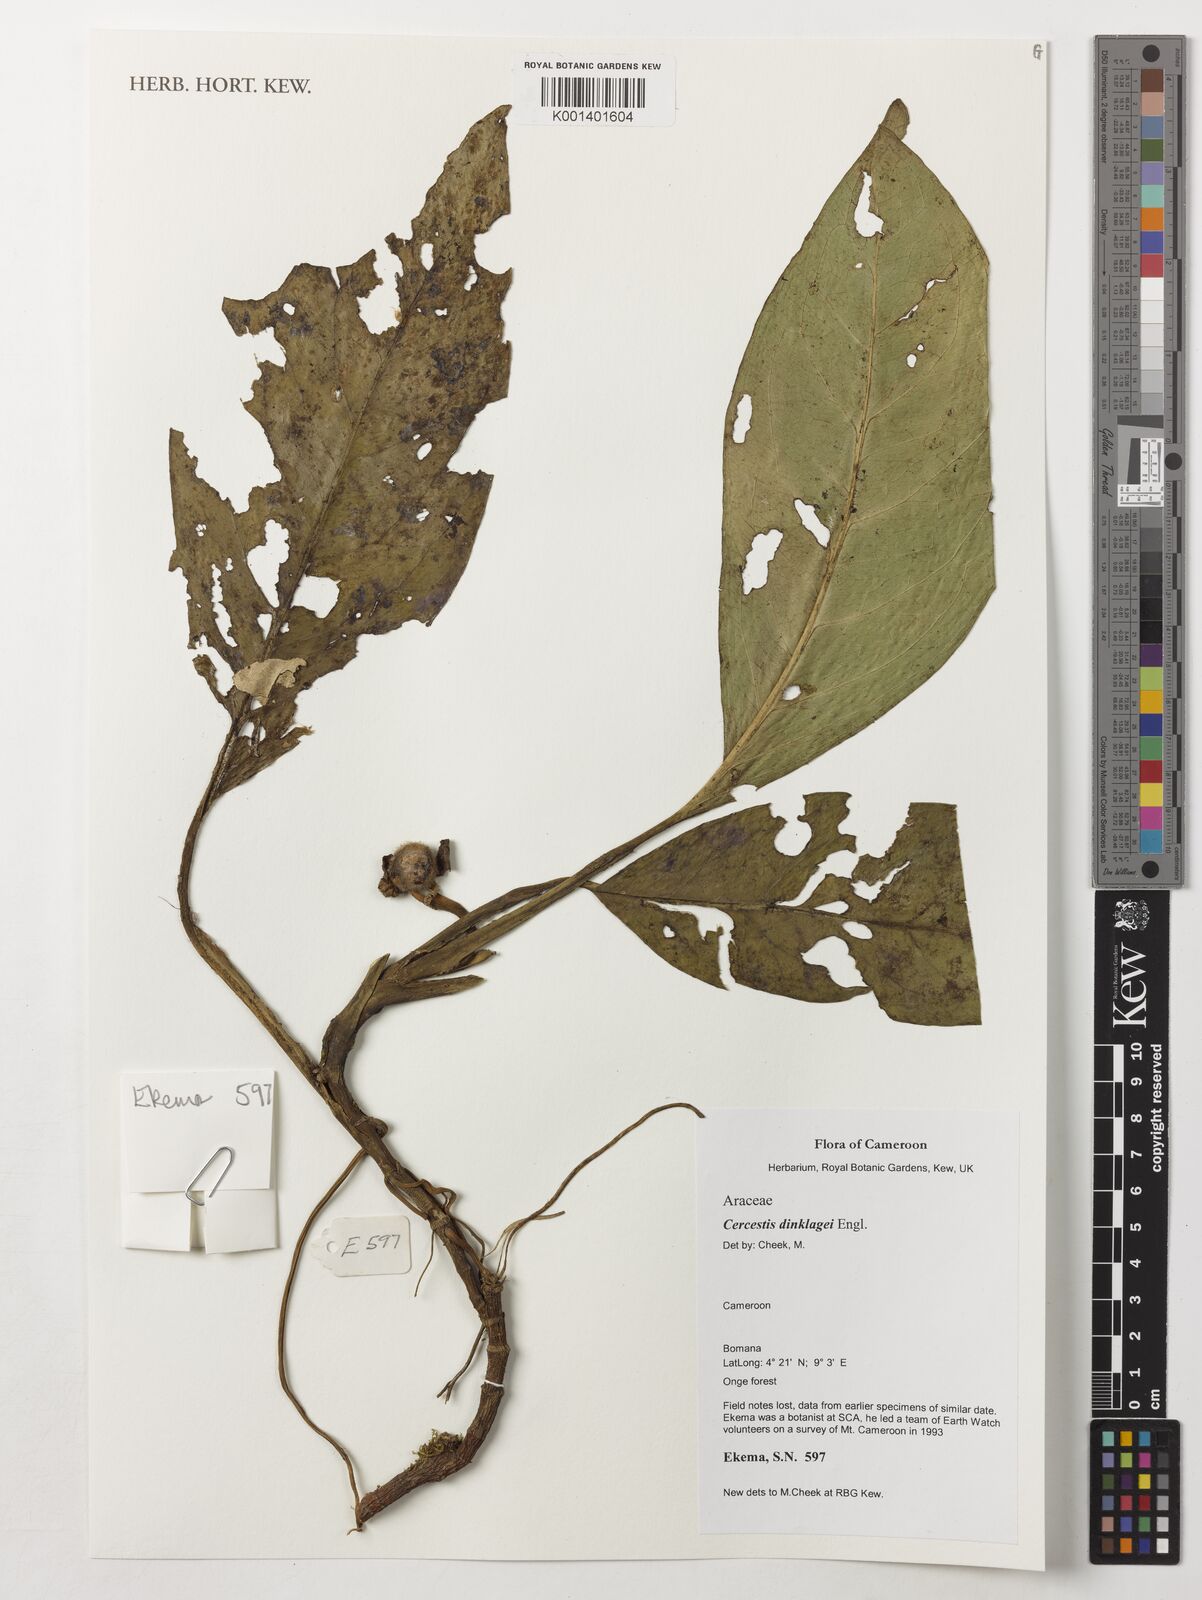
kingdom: Plantae
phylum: Tracheophyta
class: Liliopsida
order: Alismatales
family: Araceae
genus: Cercestis
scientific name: Cercestis dinklagei
